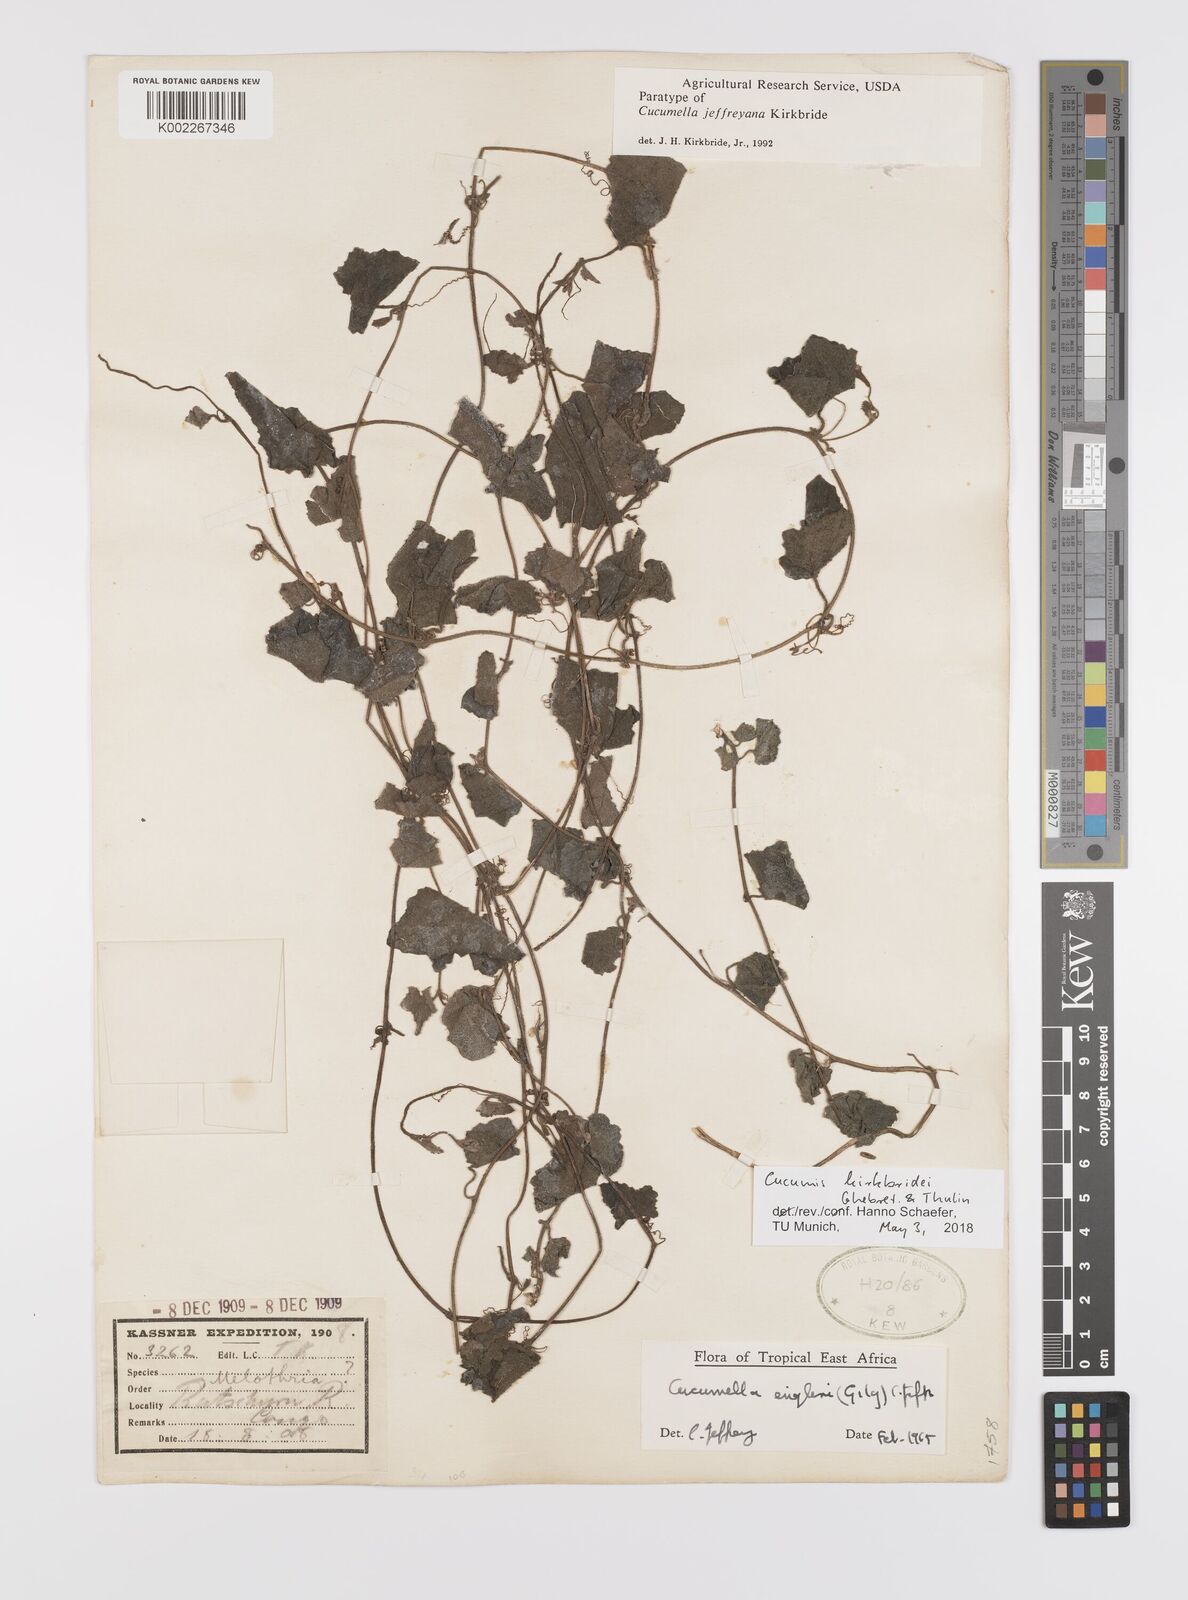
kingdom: Plantae
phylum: Tracheophyta
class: Magnoliopsida
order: Cucurbitales
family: Cucurbitaceae
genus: Cucumis
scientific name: Cucumis kirkbridei
